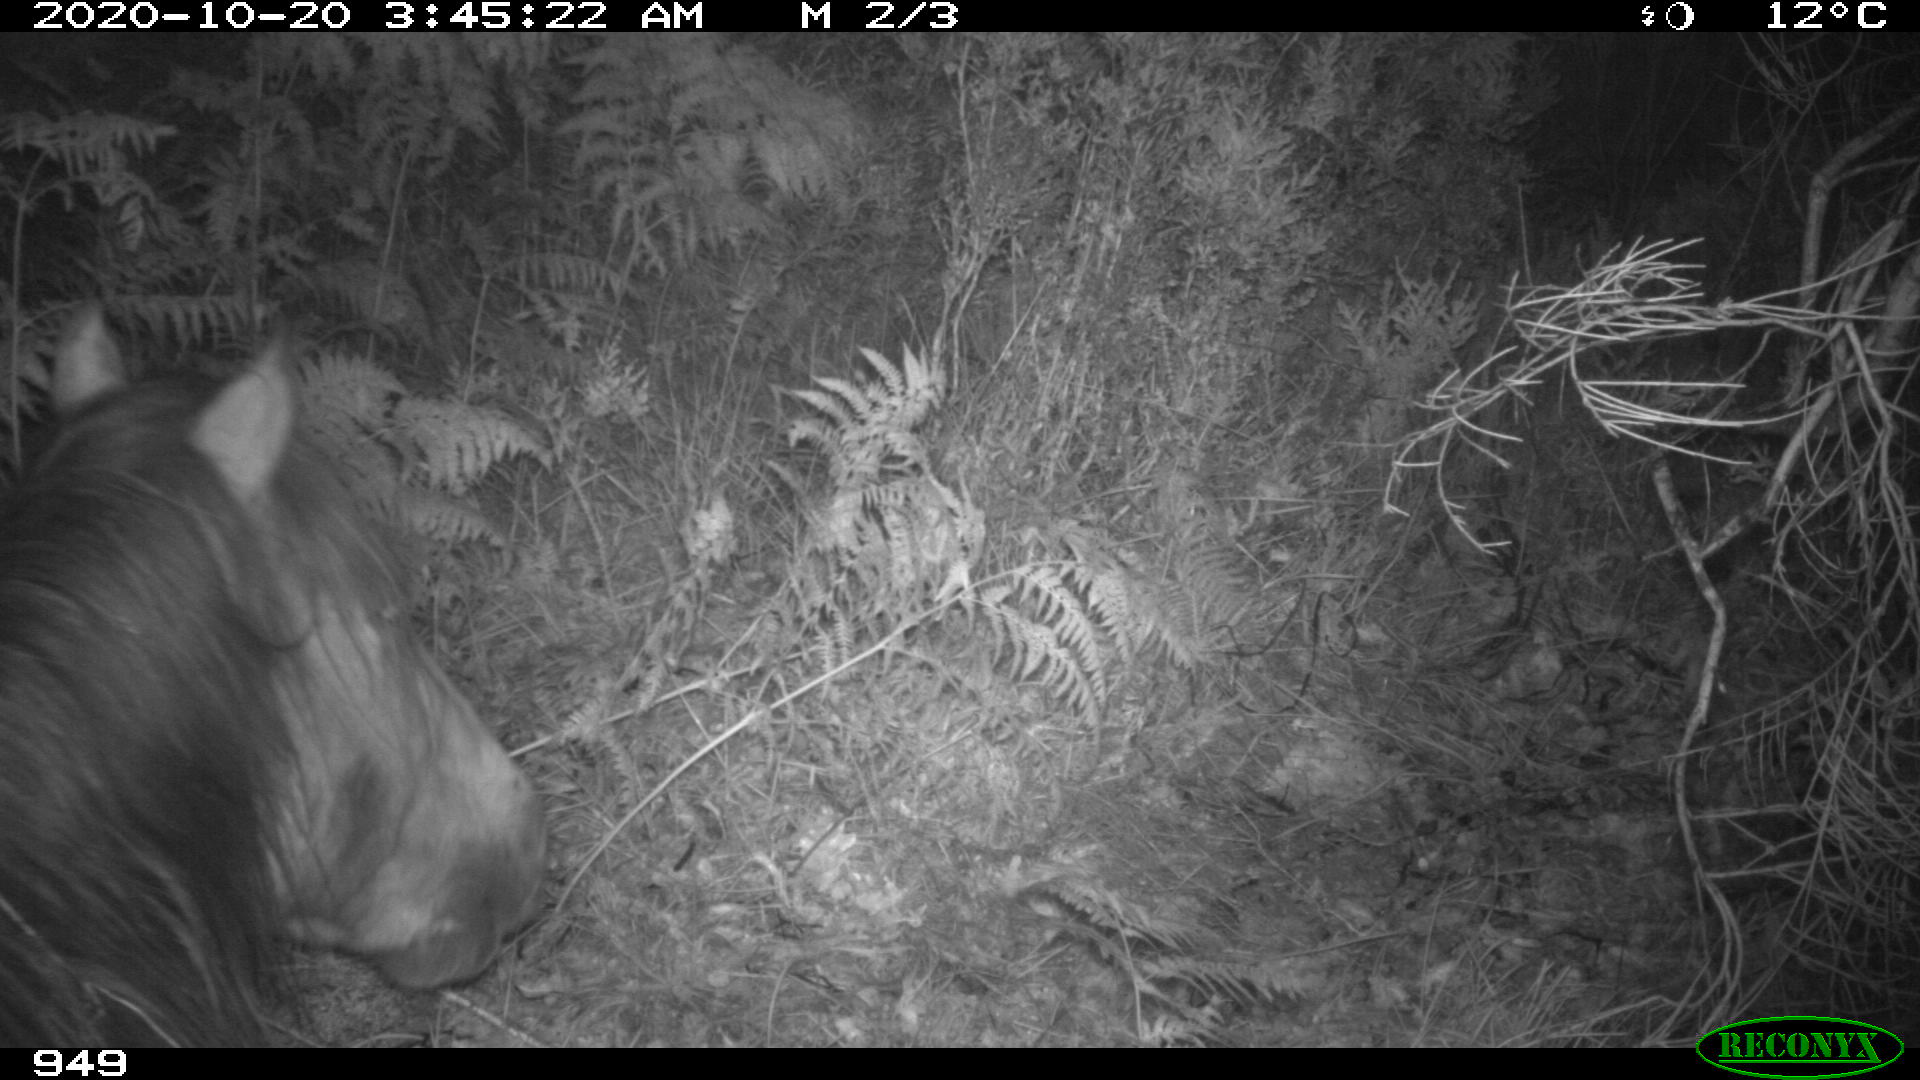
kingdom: Animalia
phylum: Chordata
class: Mammalia
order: Perissodactyla
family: Equidae
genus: Equus
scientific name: Equus caballus
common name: Horse
